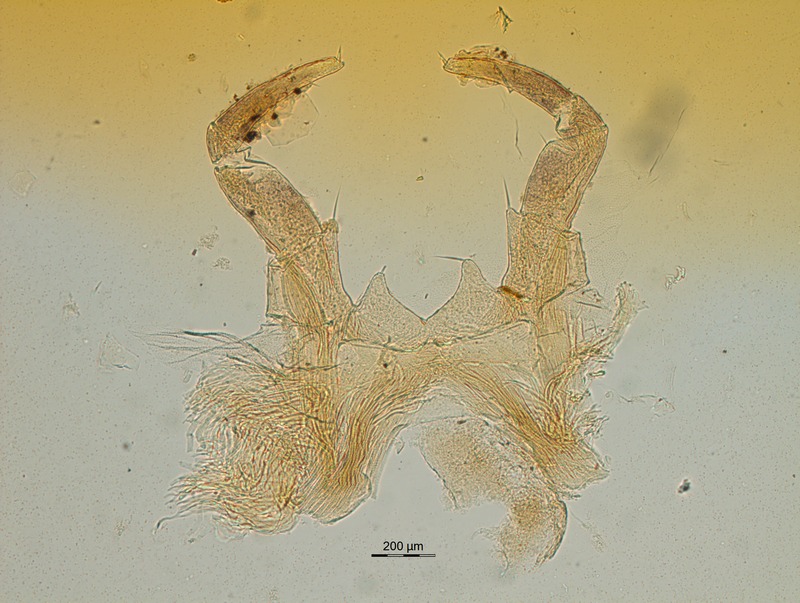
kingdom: Animalia
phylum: Arthropoda
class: Diplopoda
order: Glomerida
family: Glomeridae
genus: Glomeris
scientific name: Glomeris
